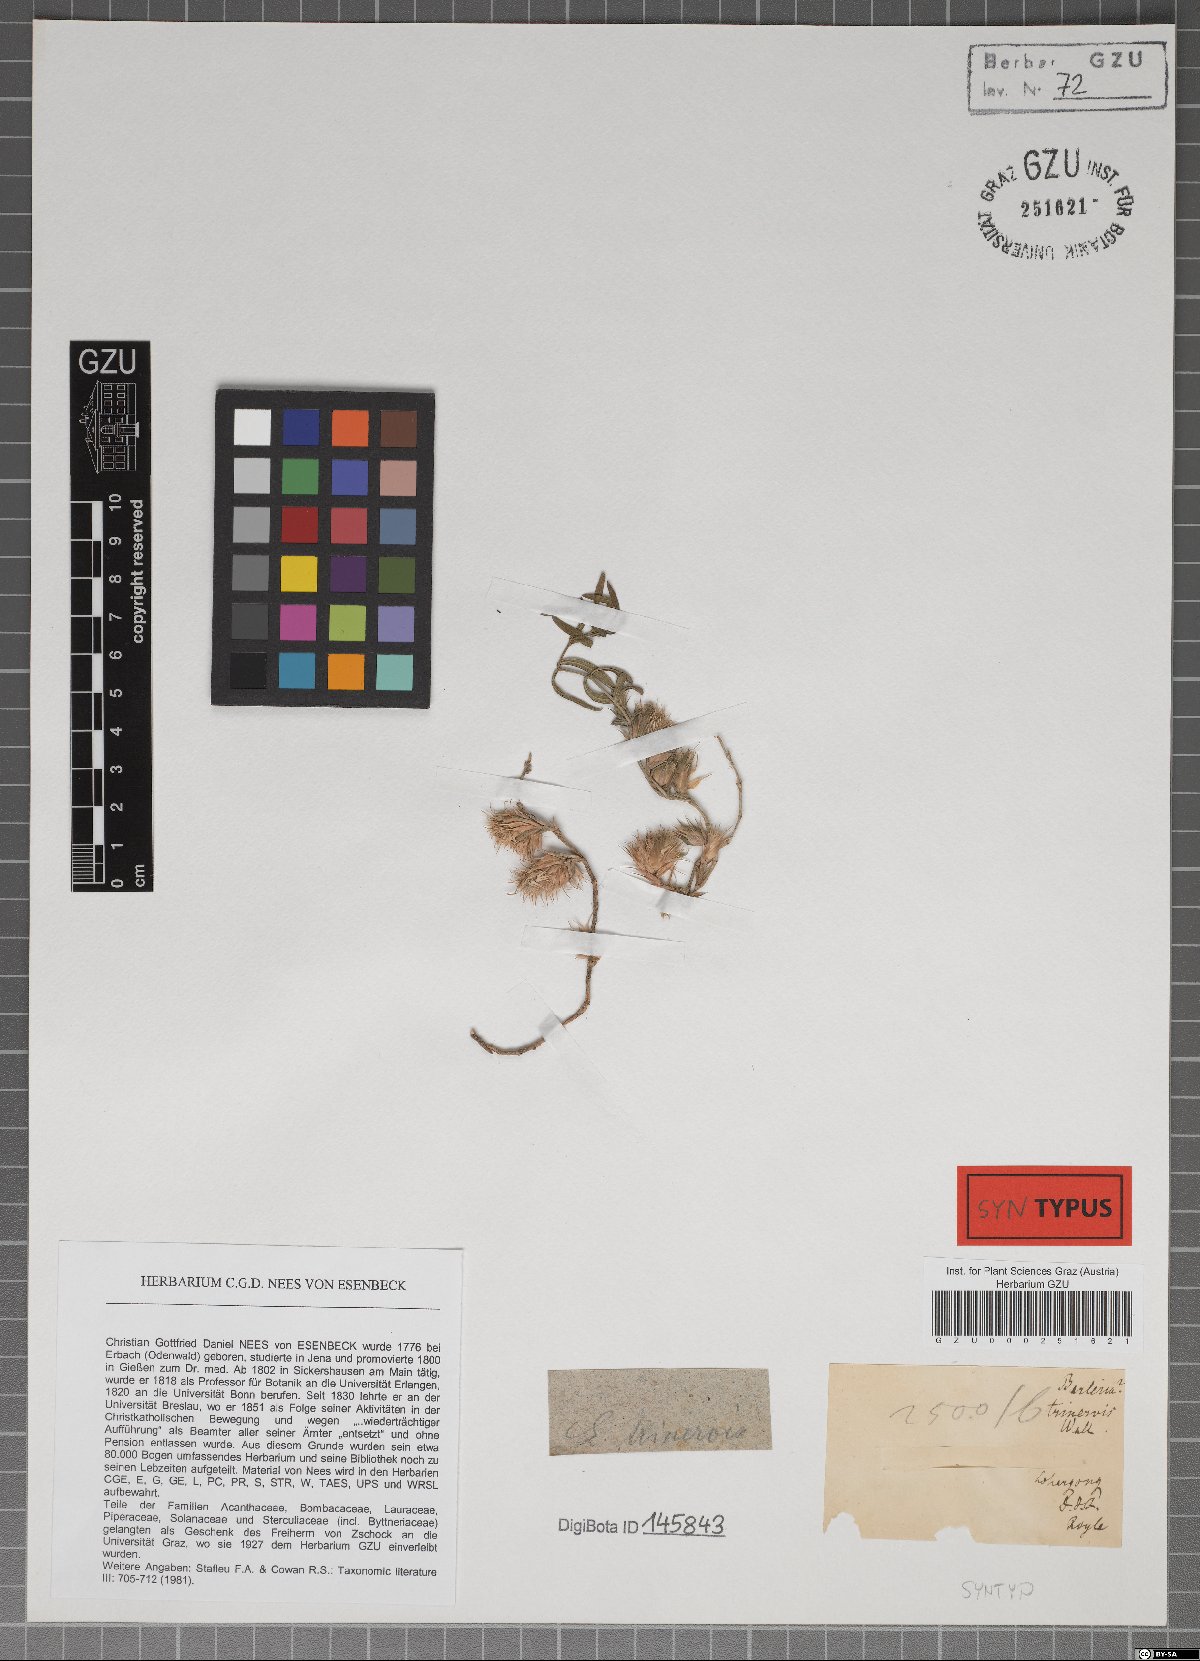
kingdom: Plantae
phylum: Tracheophyta
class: Magnoliopsida
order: Lamiales
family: Acanthaceae
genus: Lepidagathis
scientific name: Lepidagathis trinervis
